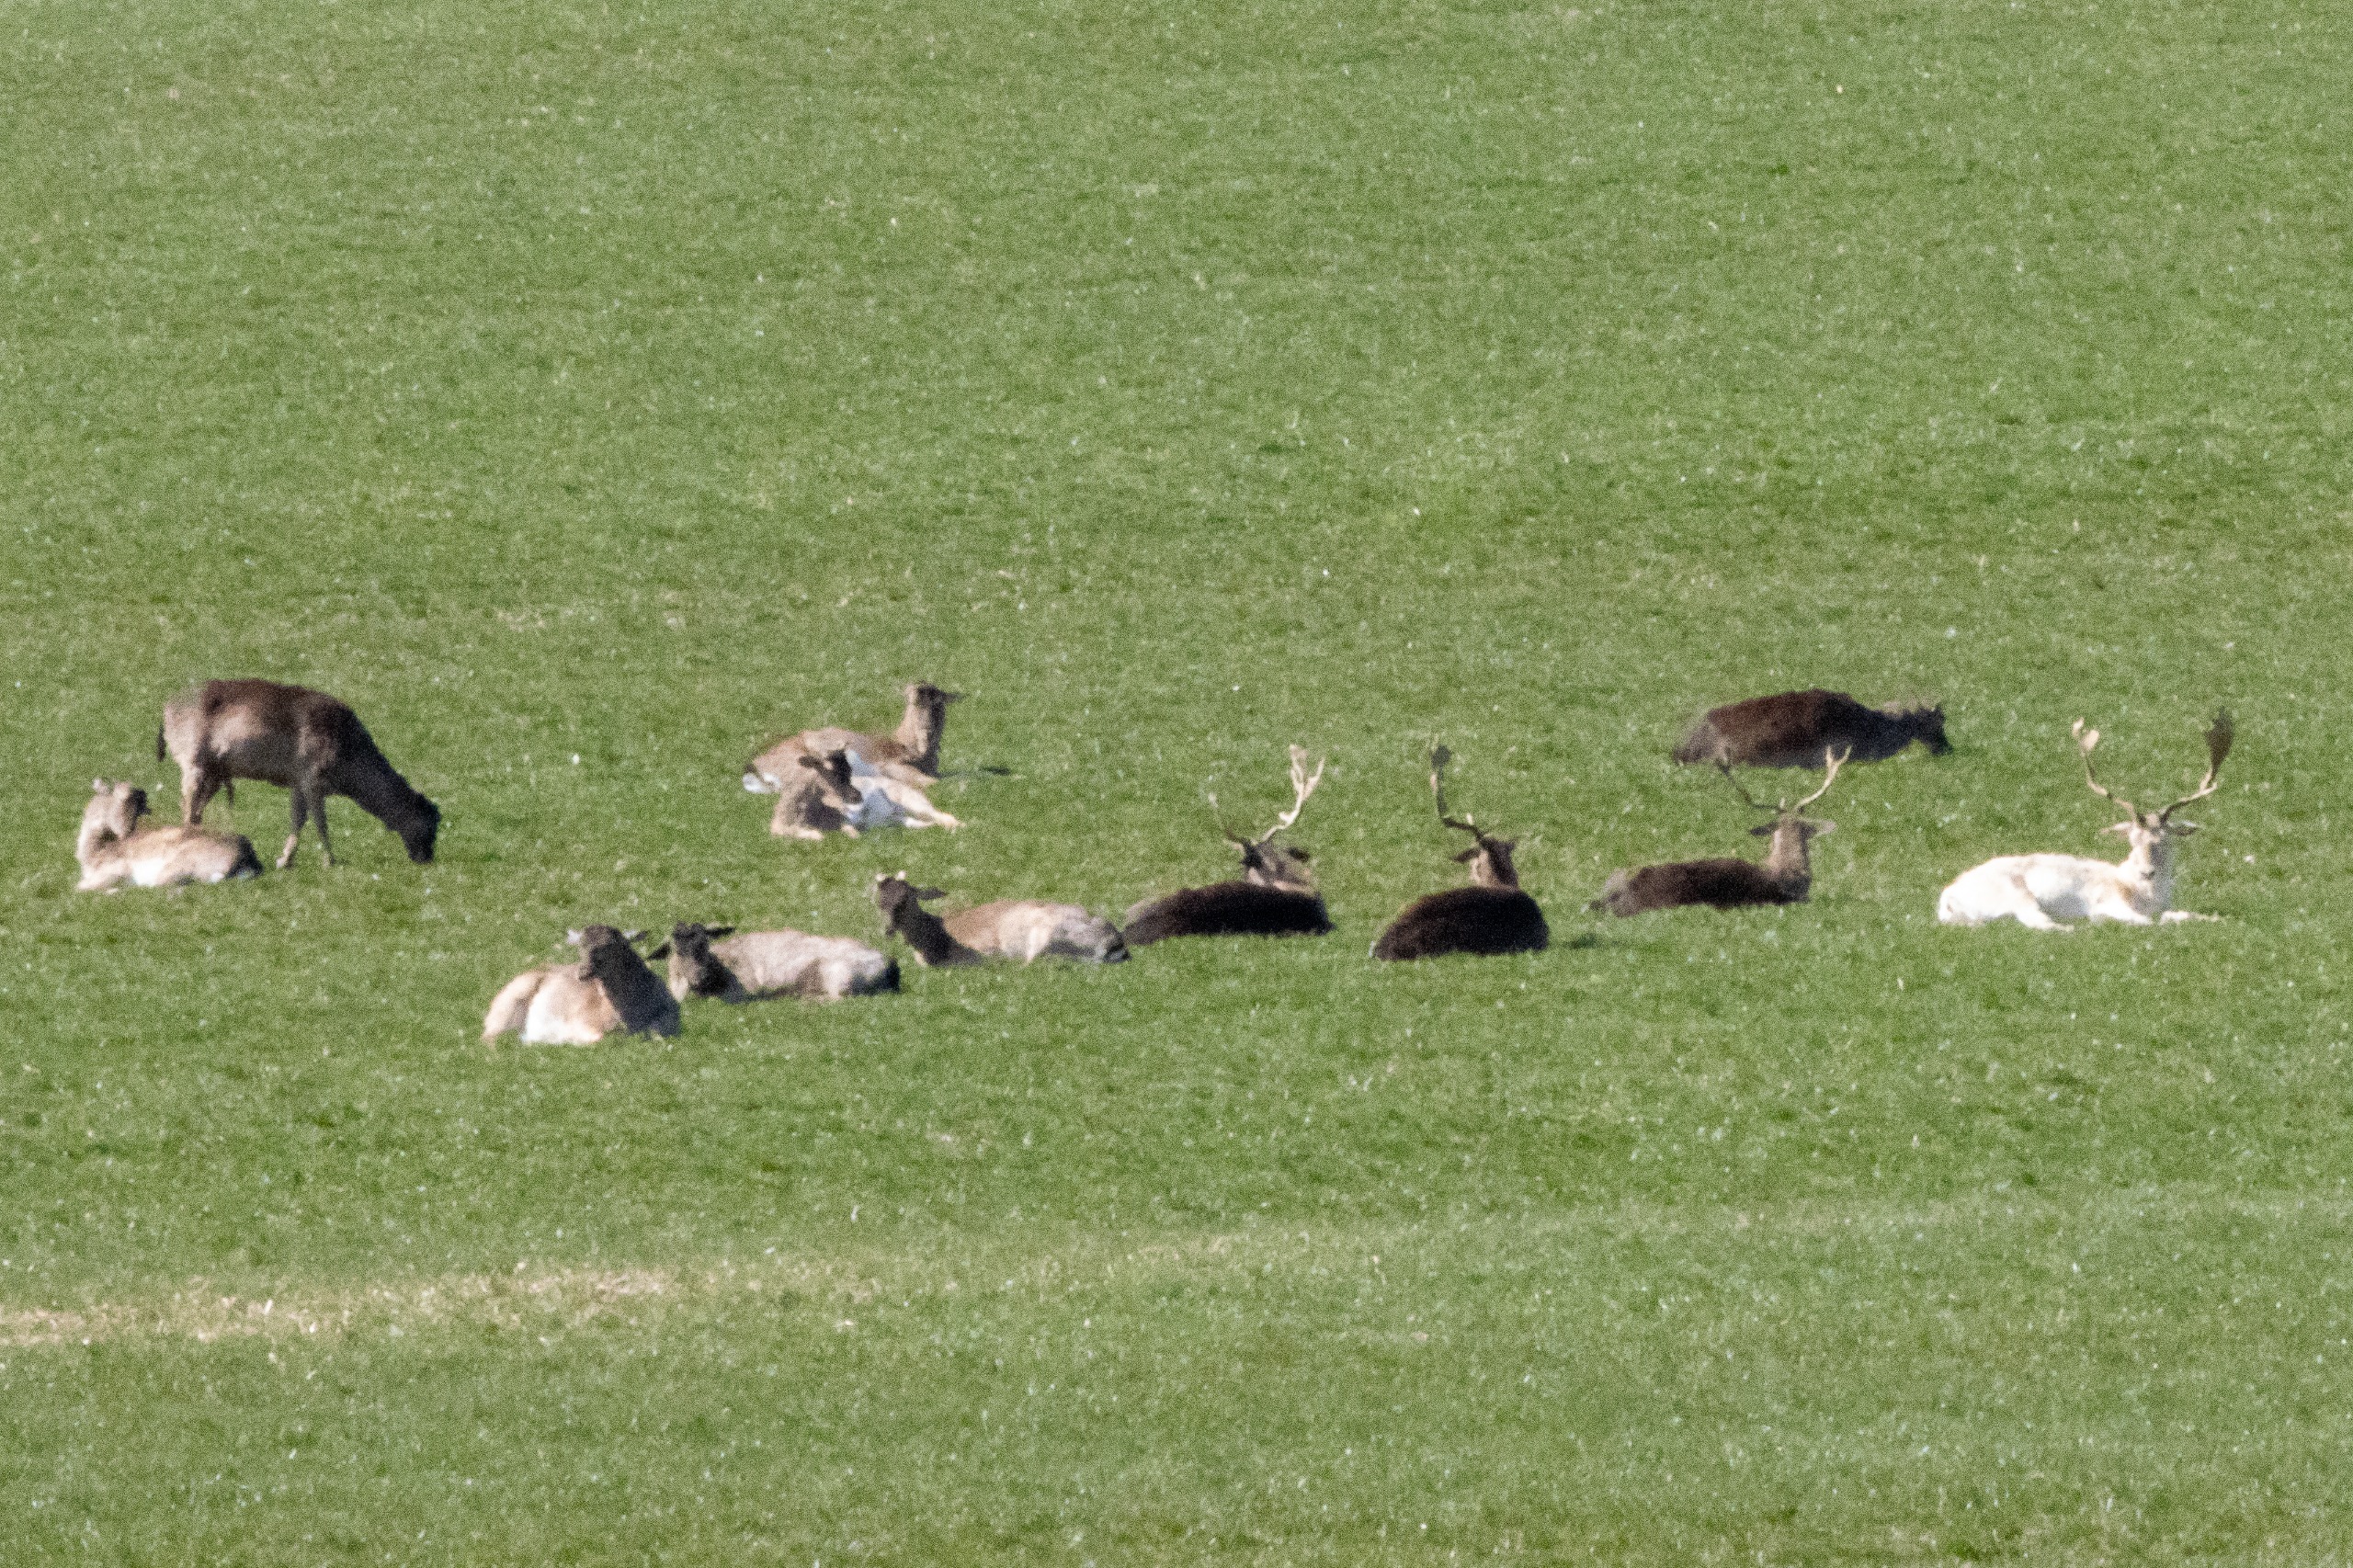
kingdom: Animalia
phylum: Chordata
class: Mammalia
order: Artiodactyla
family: Cervidae
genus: Dama
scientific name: Dama dama
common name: Dådyr
